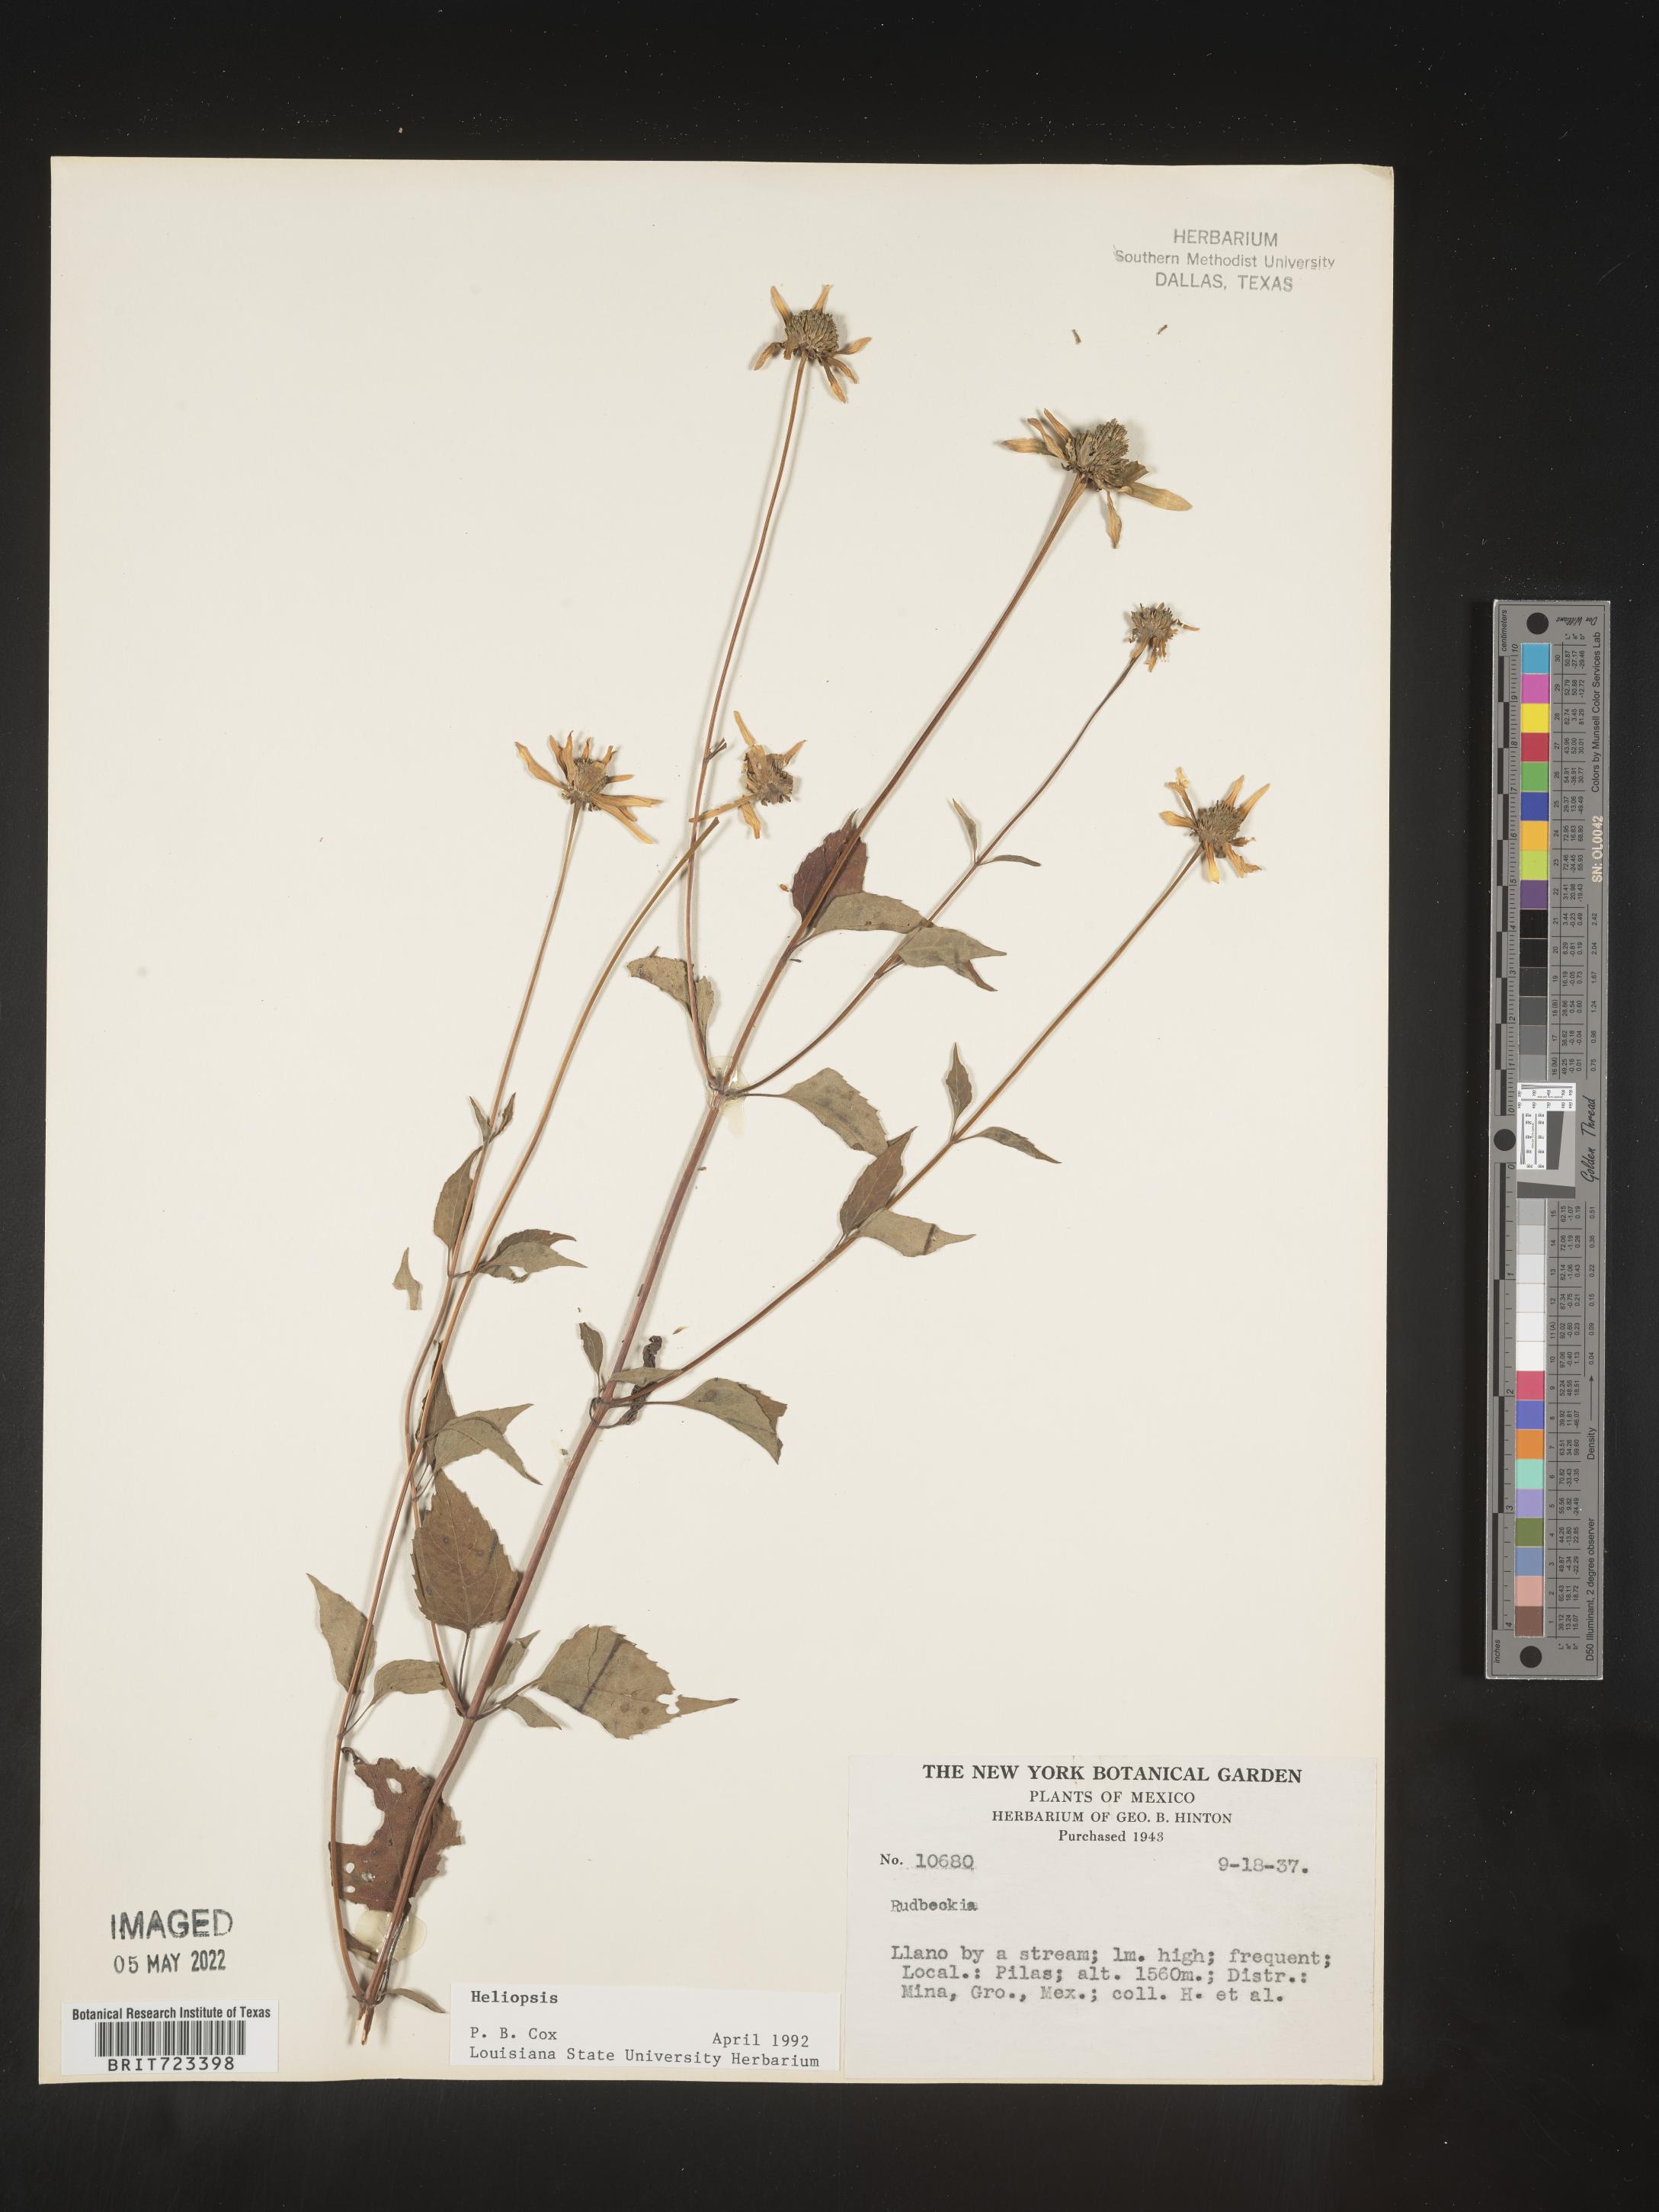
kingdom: Plantae
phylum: Tracheophyta
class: Magnoliopsida
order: Asterales
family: Asteraceae
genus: Heliopsis
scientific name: Heliopsis
